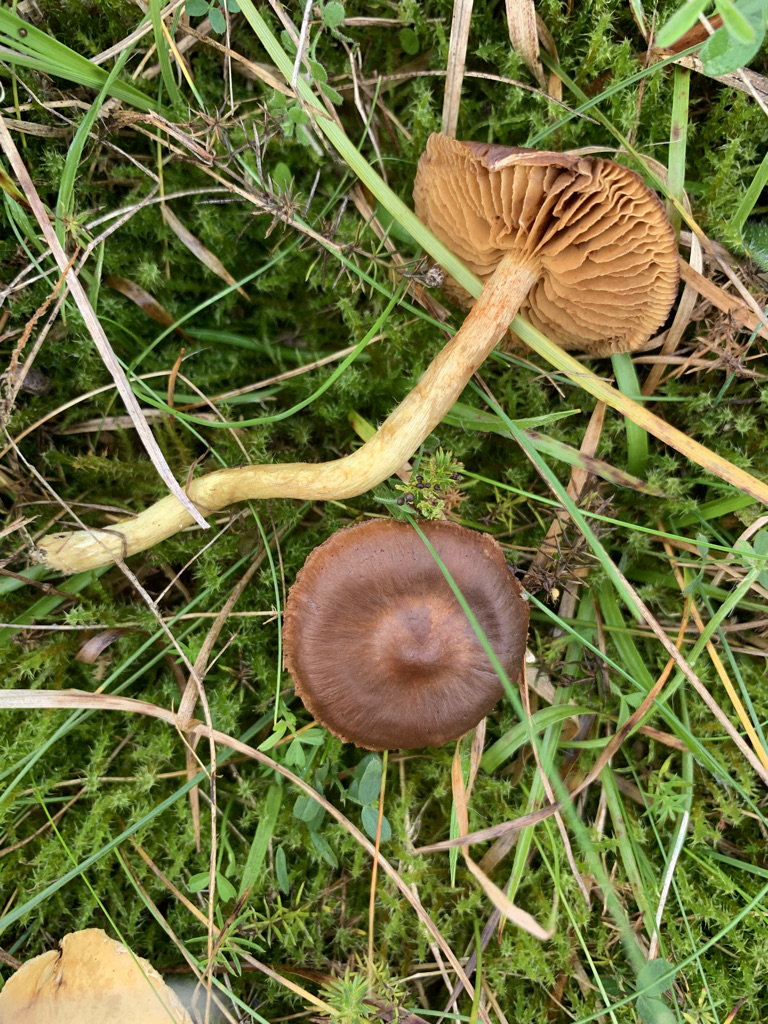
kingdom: Fungi
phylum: Basidiomycota
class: Agaricomycetes
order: Agaricales
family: Cortinariaceae
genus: Cortinarius
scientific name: Cortinarius pratensis
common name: hede-slørhat
